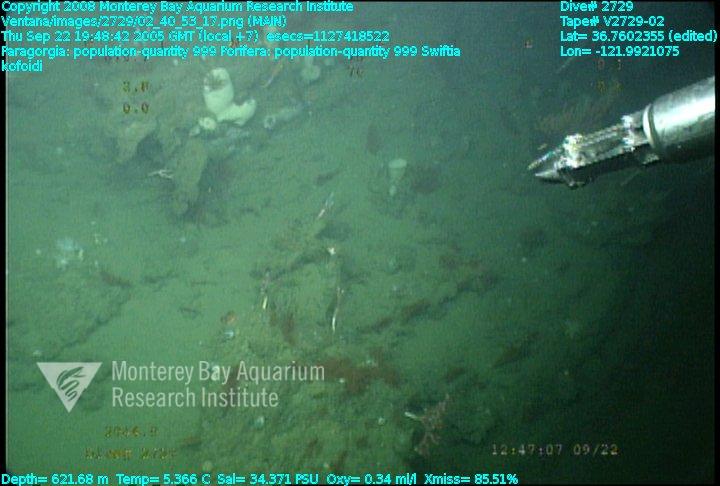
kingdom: Animalia
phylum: Porifera
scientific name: Porifera
